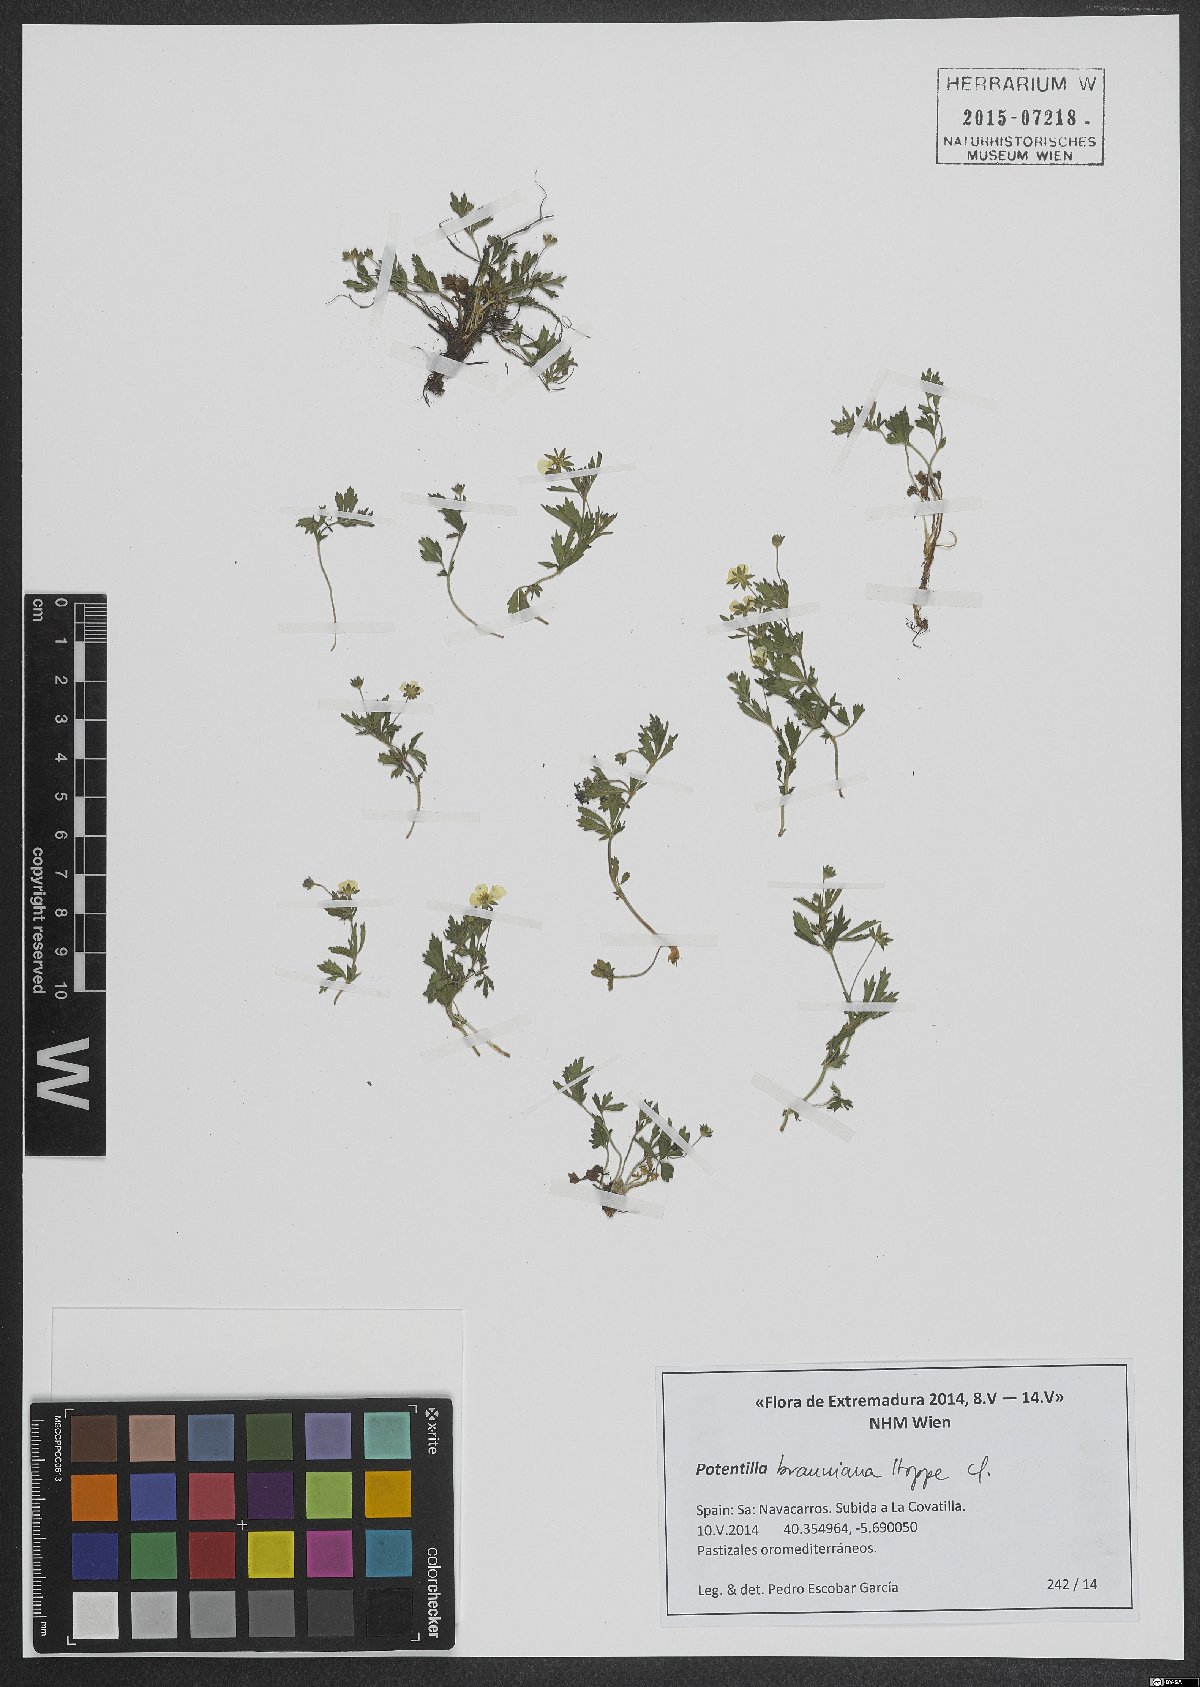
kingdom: Plantae
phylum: Tracheophyta
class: Magnoliopsida
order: Rosales
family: Rosaceae
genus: Potentilla
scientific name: Potentilla brauneana
